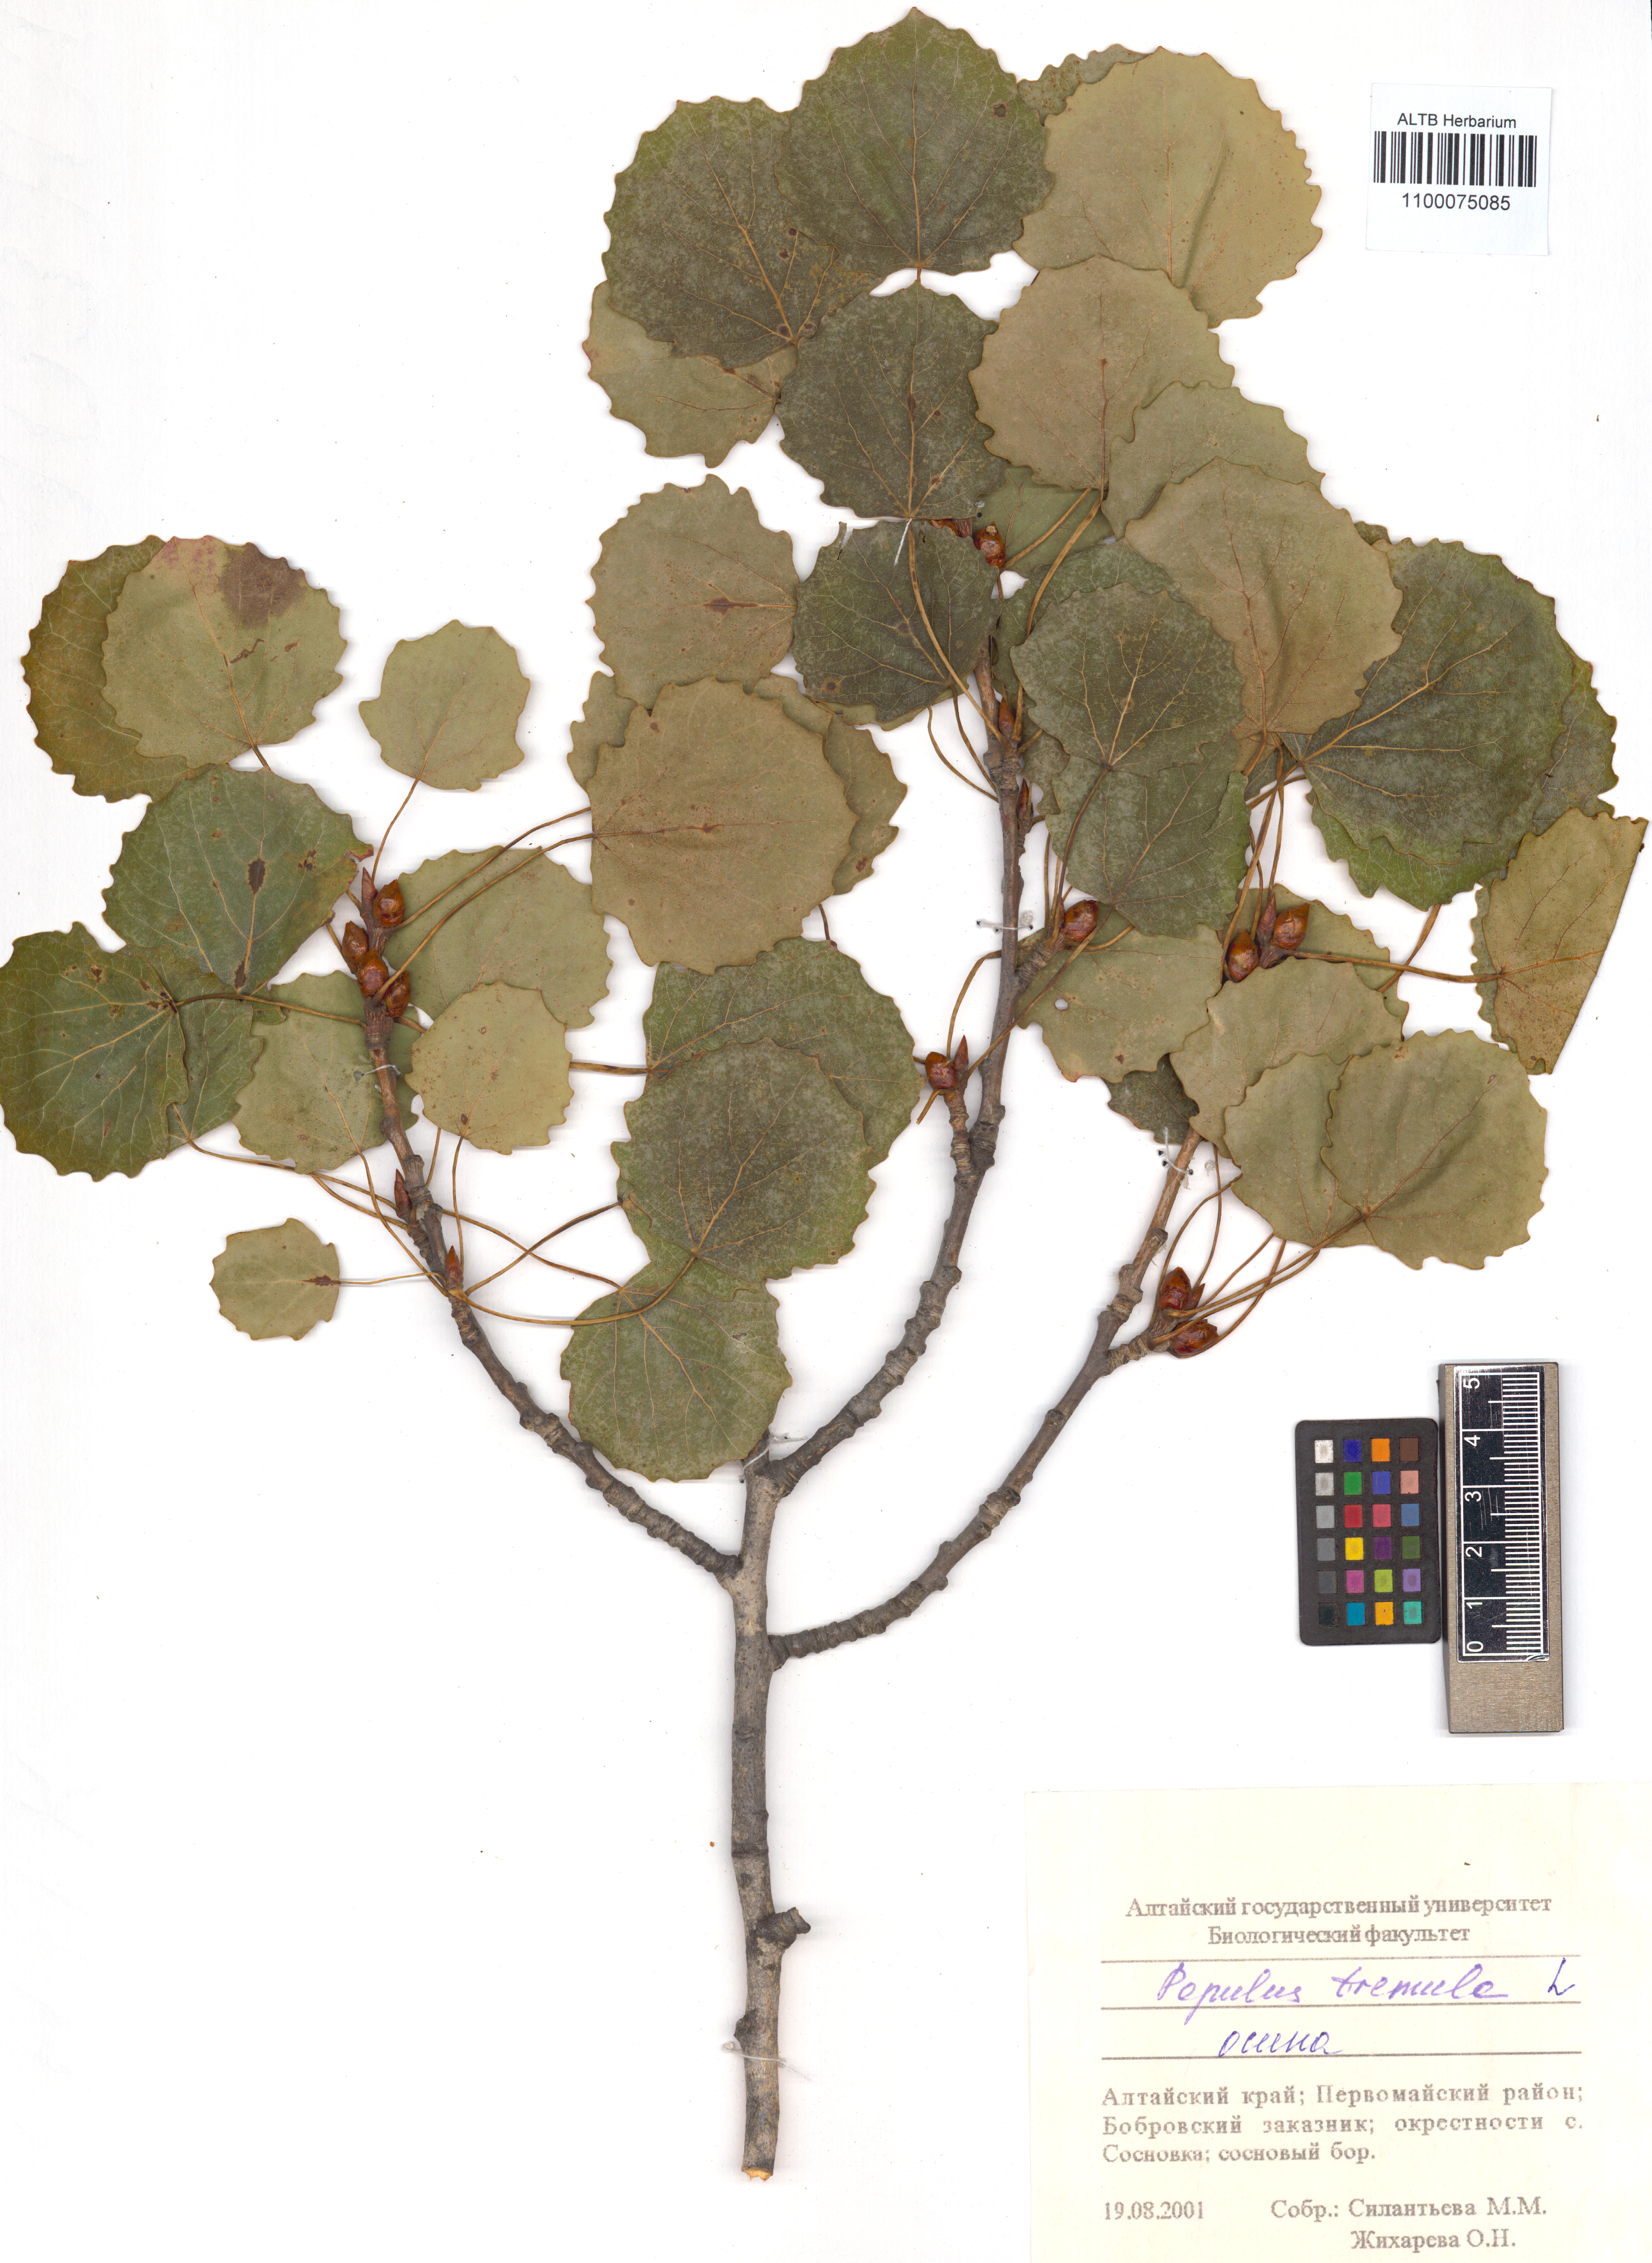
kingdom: Plantae
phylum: Tracheophyta
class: Magnoliopsida
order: Malpighiales
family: Salicaceae
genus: Populus
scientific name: Populus tremula
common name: European aspen
